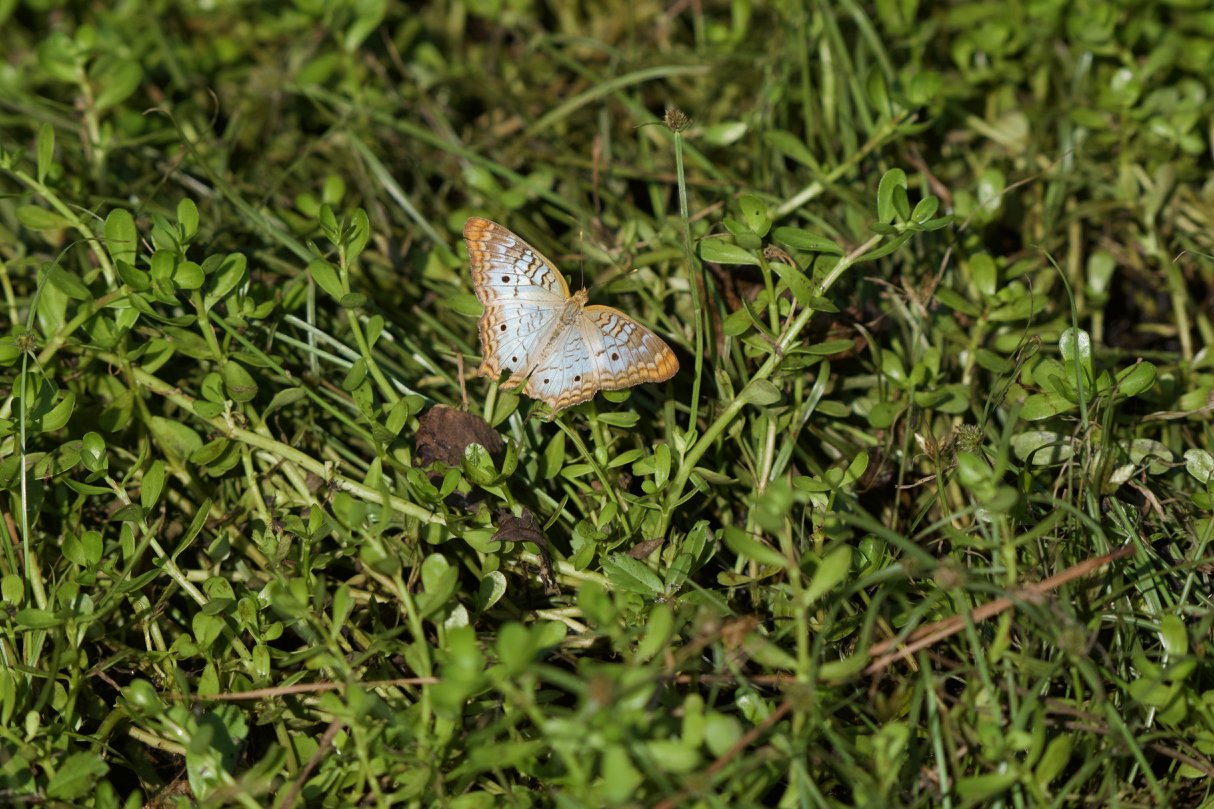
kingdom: Animalia
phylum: Arthropoda
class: Insecta
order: Lepidoptera
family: Nymphalidae
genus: Anartia
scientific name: Anartia jatrophae
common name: White Peacock
